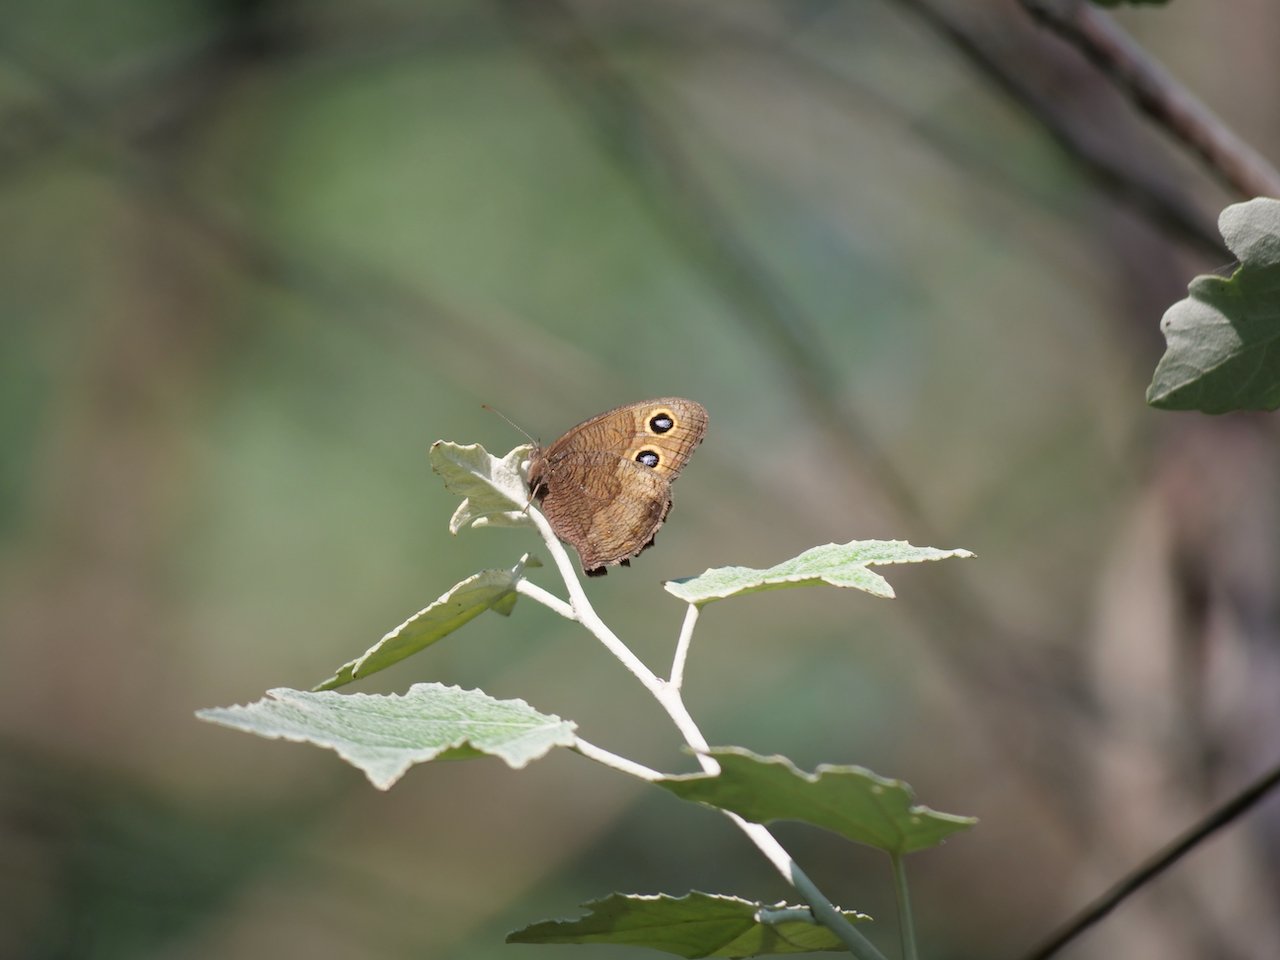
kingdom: Animalia
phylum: Arthropoda
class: Insecta
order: Lepidoptera
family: Nymphalidae
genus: Cercyonis
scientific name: Cercyonis pegala
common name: Common Wood-Nymph
